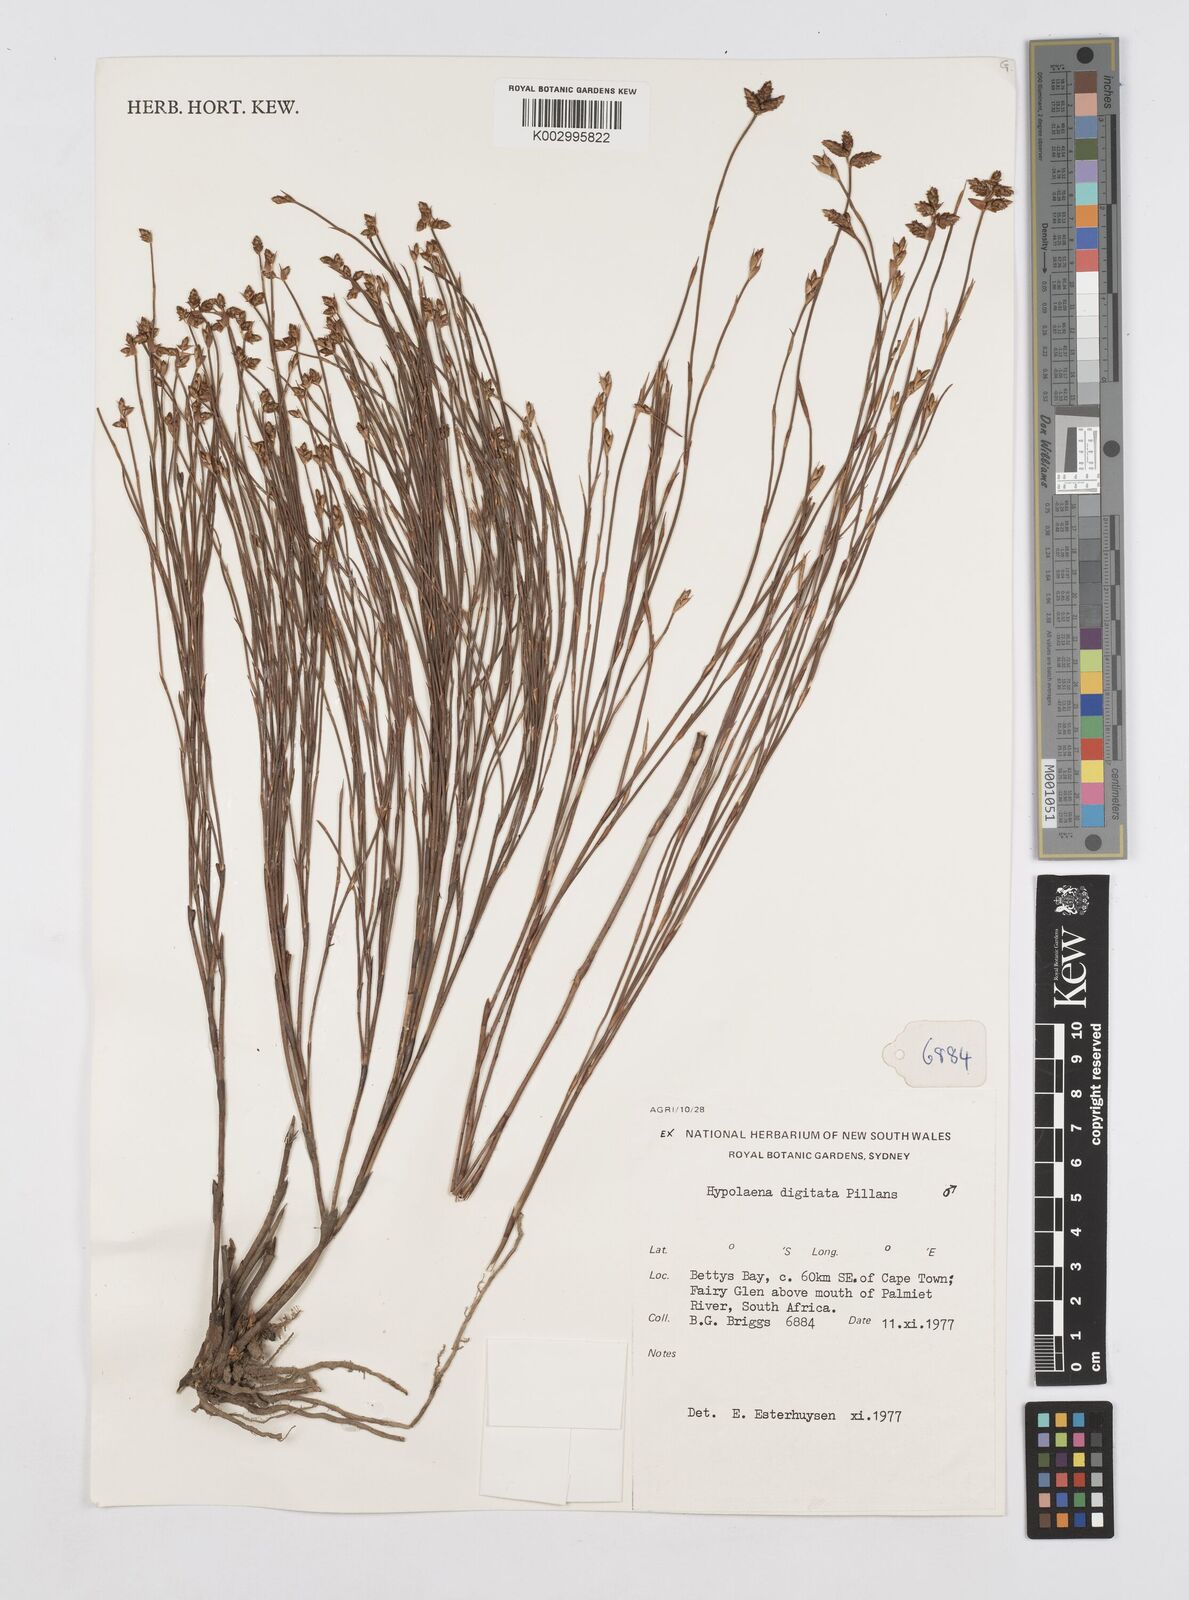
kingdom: Plantae
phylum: Tracheophyta
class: Liliopsida
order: Poales
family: Restionaceae
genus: Mastersiella
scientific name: Mastersiella digitata
